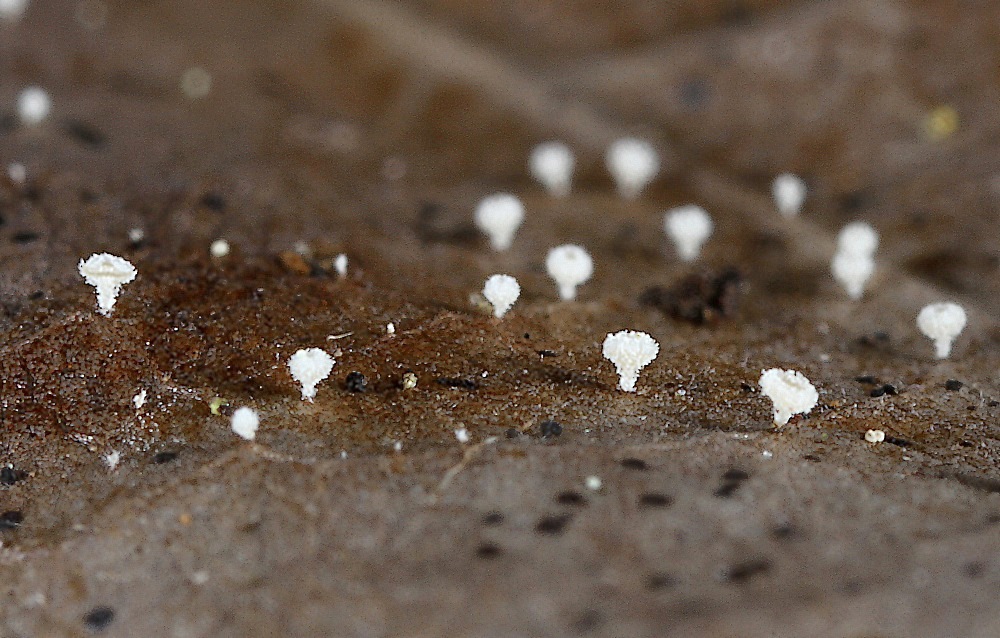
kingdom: Fungi
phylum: Ascomycota
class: Leotiomycetes
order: Helotiales
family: Lachnaceae
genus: Lachnum
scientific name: Lachnum rhytismatis
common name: blad-frynseskive
